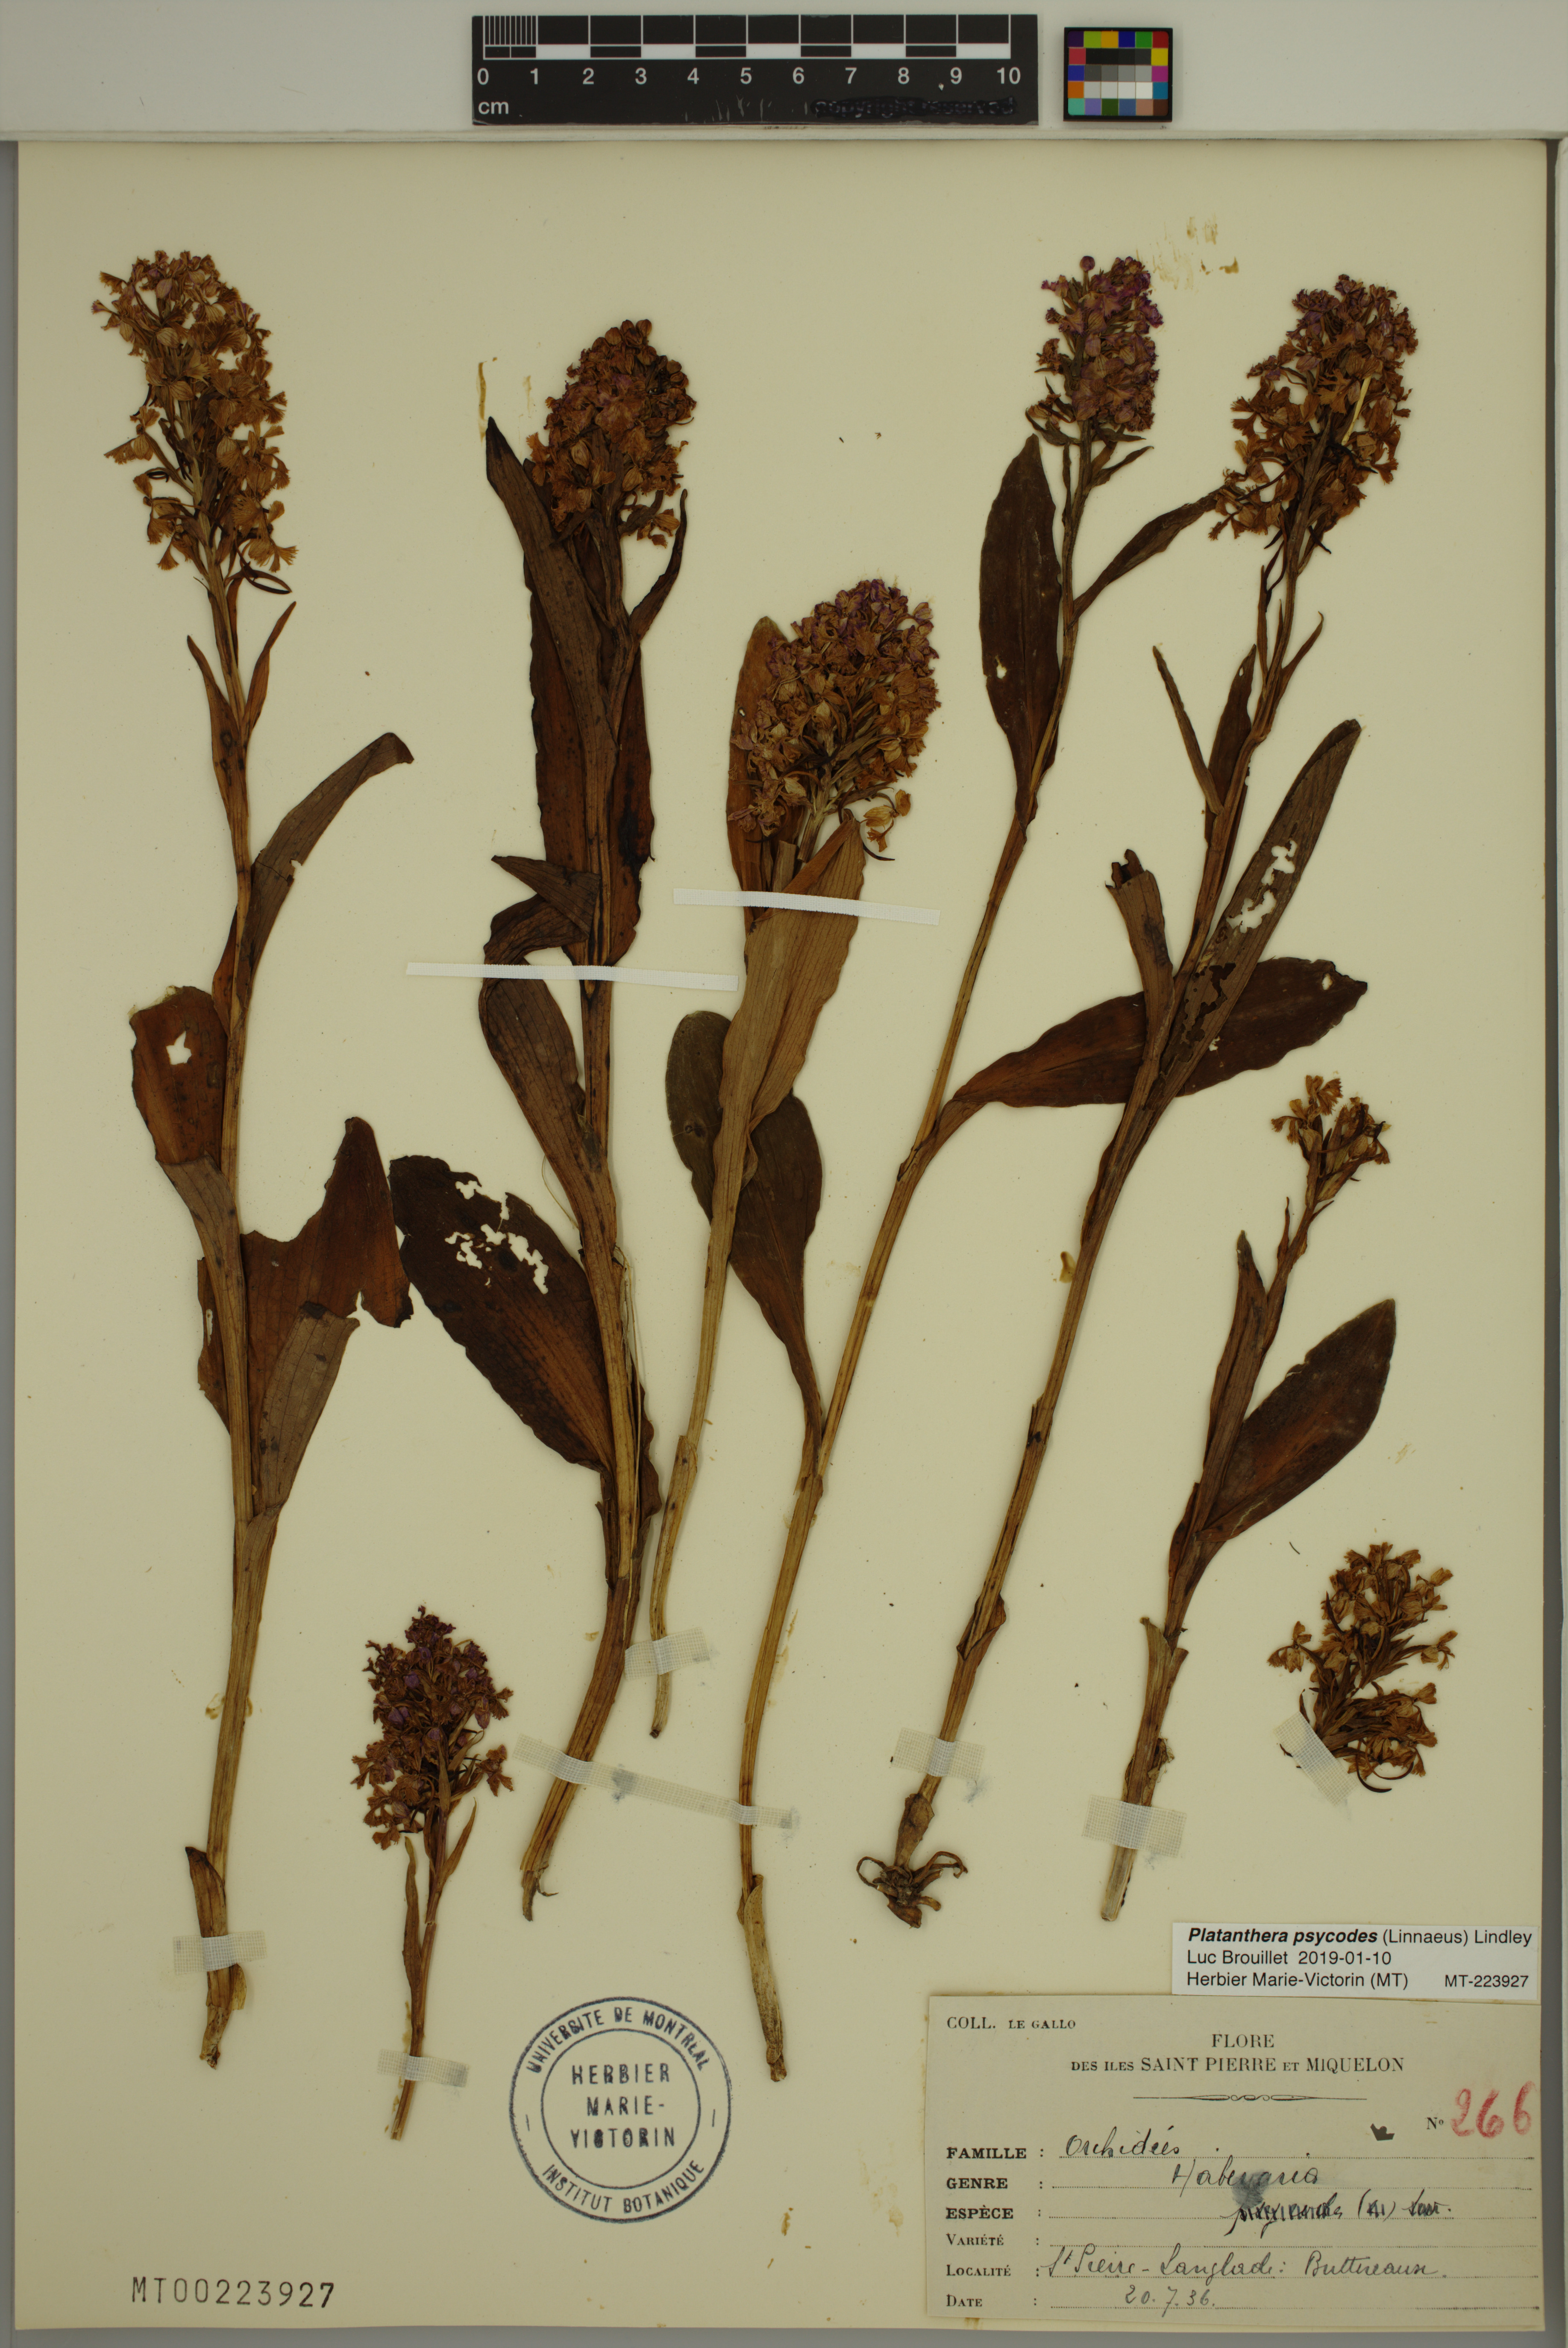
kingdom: Plantae
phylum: Tracheophyta
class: Liliopsida
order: Asparagales
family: Orchidaceae
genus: Platanthera
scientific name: Platanthera psycodes
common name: Lesser purple fringed orchid
